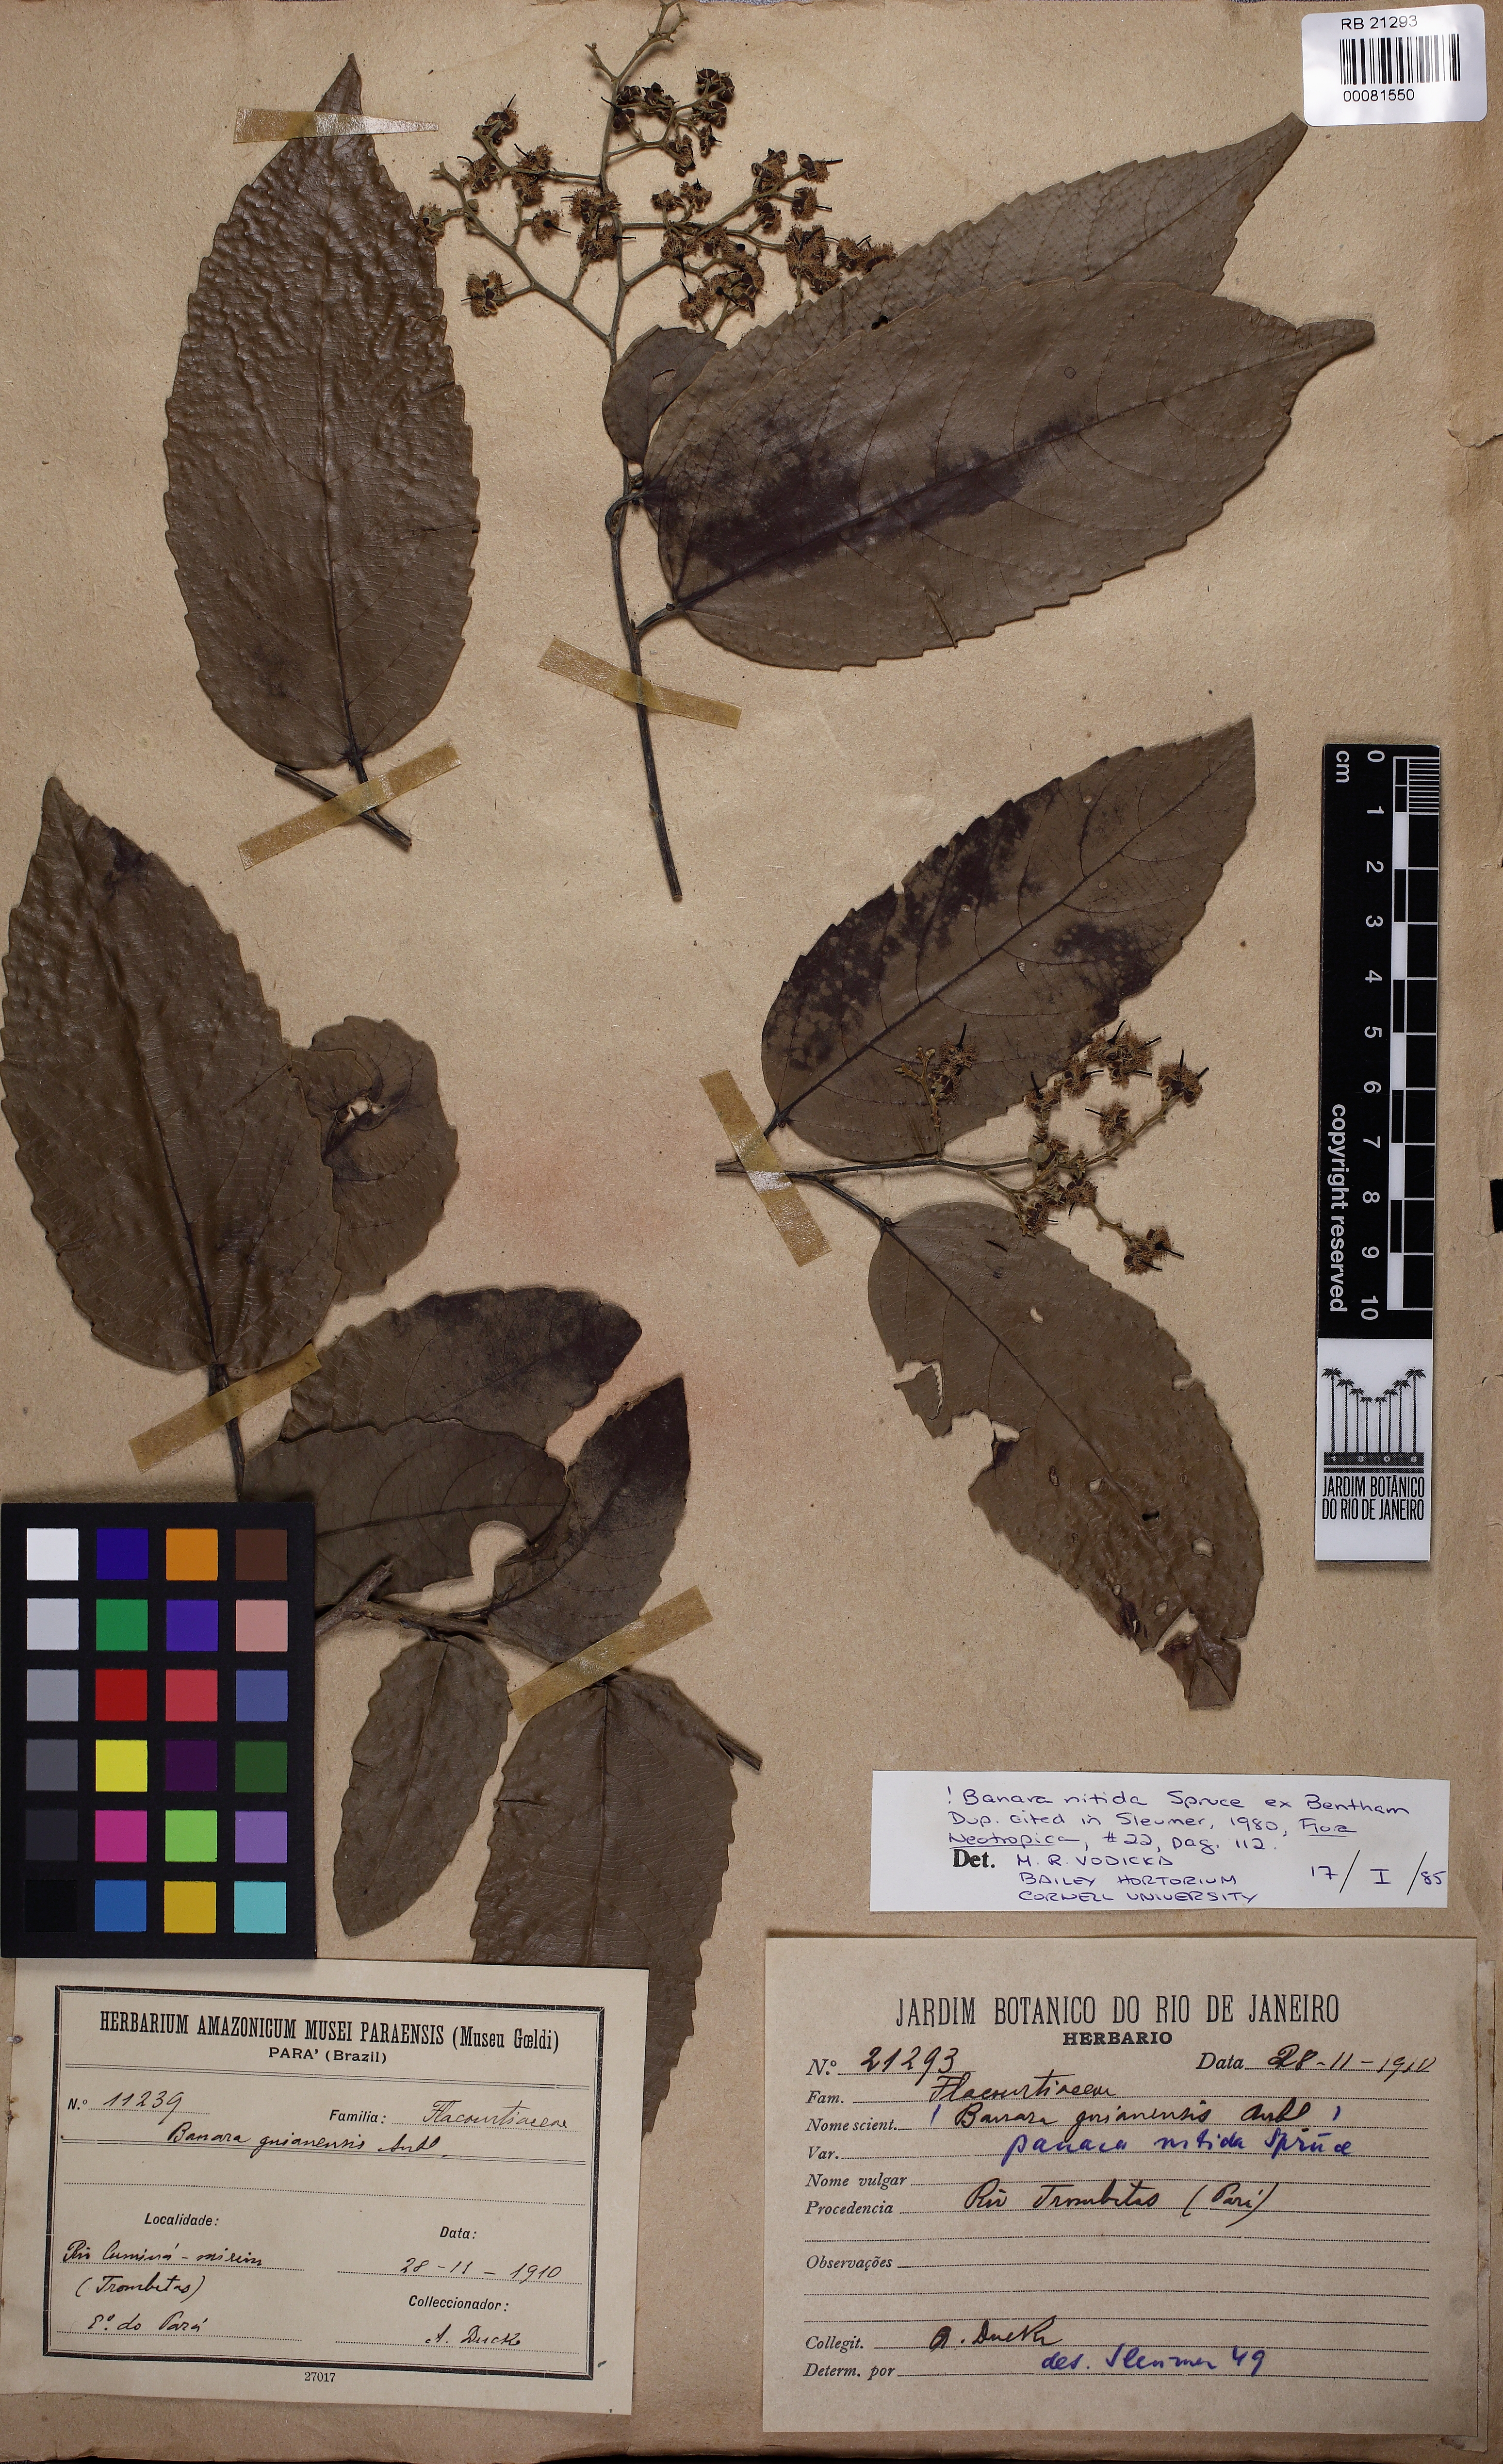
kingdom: Plantae
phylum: Tracheophyta
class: Magnoliopsida
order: Malpighiales
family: Salicaceae
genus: Banara
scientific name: Banara nitida
